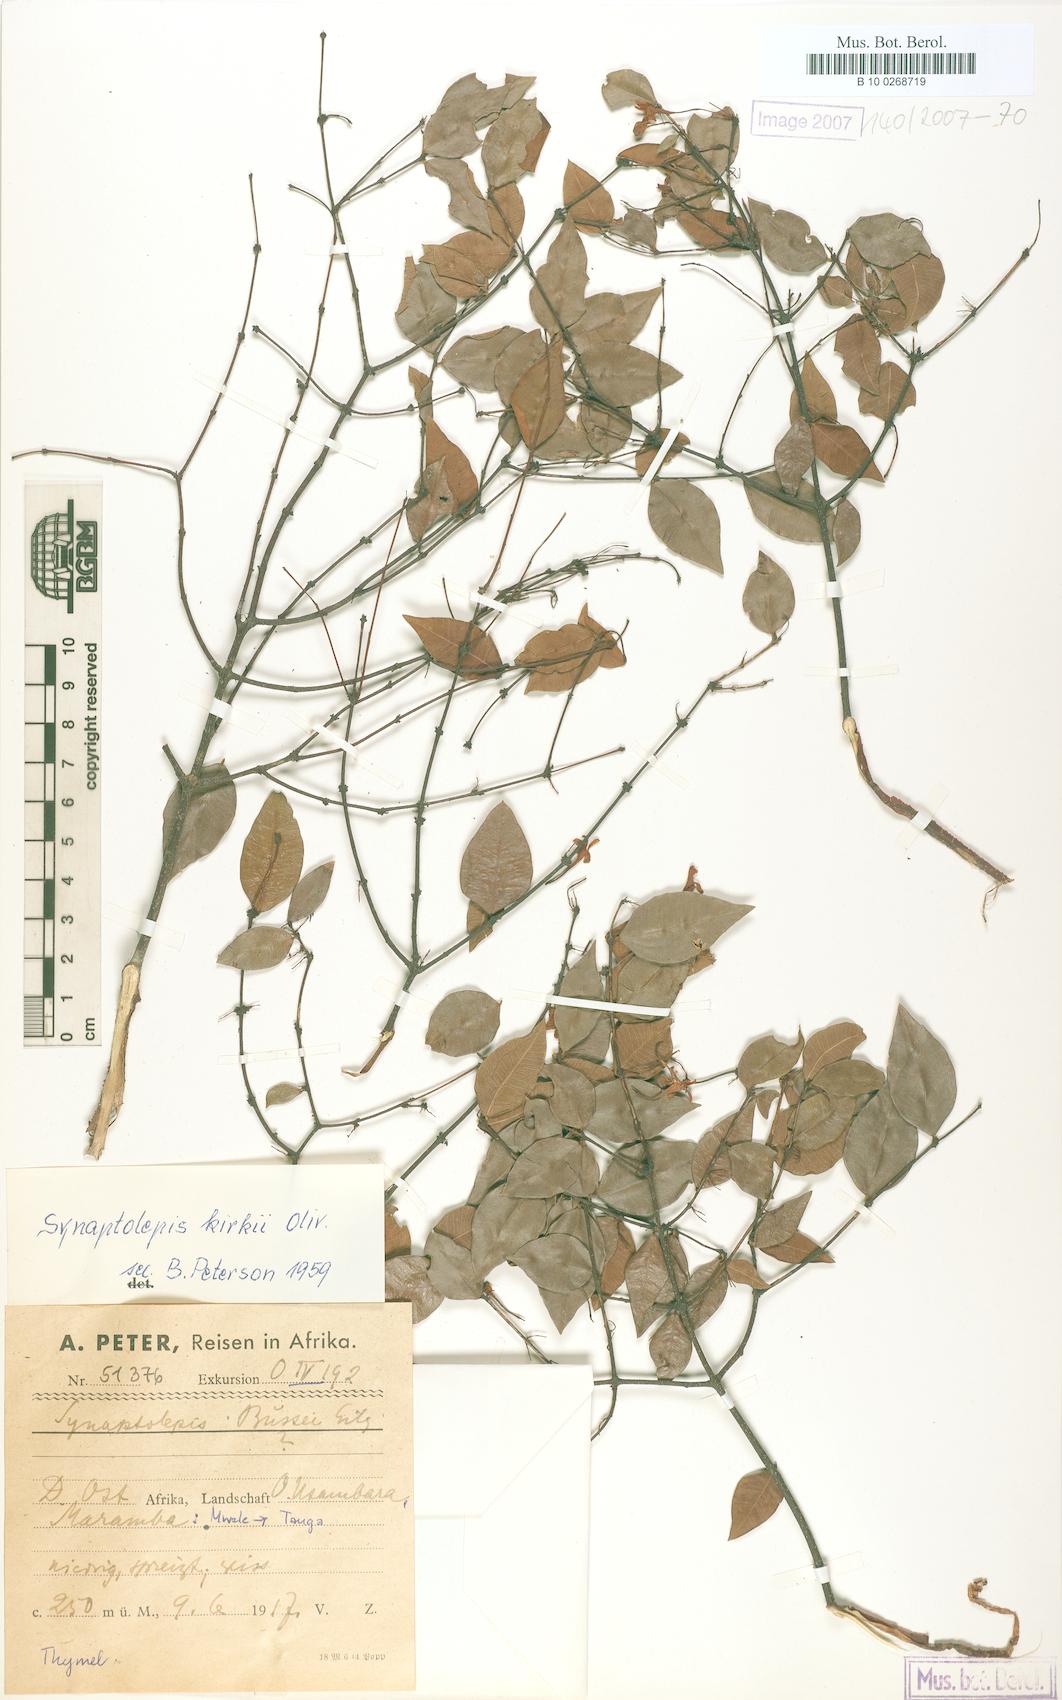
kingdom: Plantae
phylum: Tracheophyta
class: Magnoliopsida
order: Malvales
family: Thymelaeaceae
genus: Synaptolepis
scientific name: Synaptolepis kirkii
